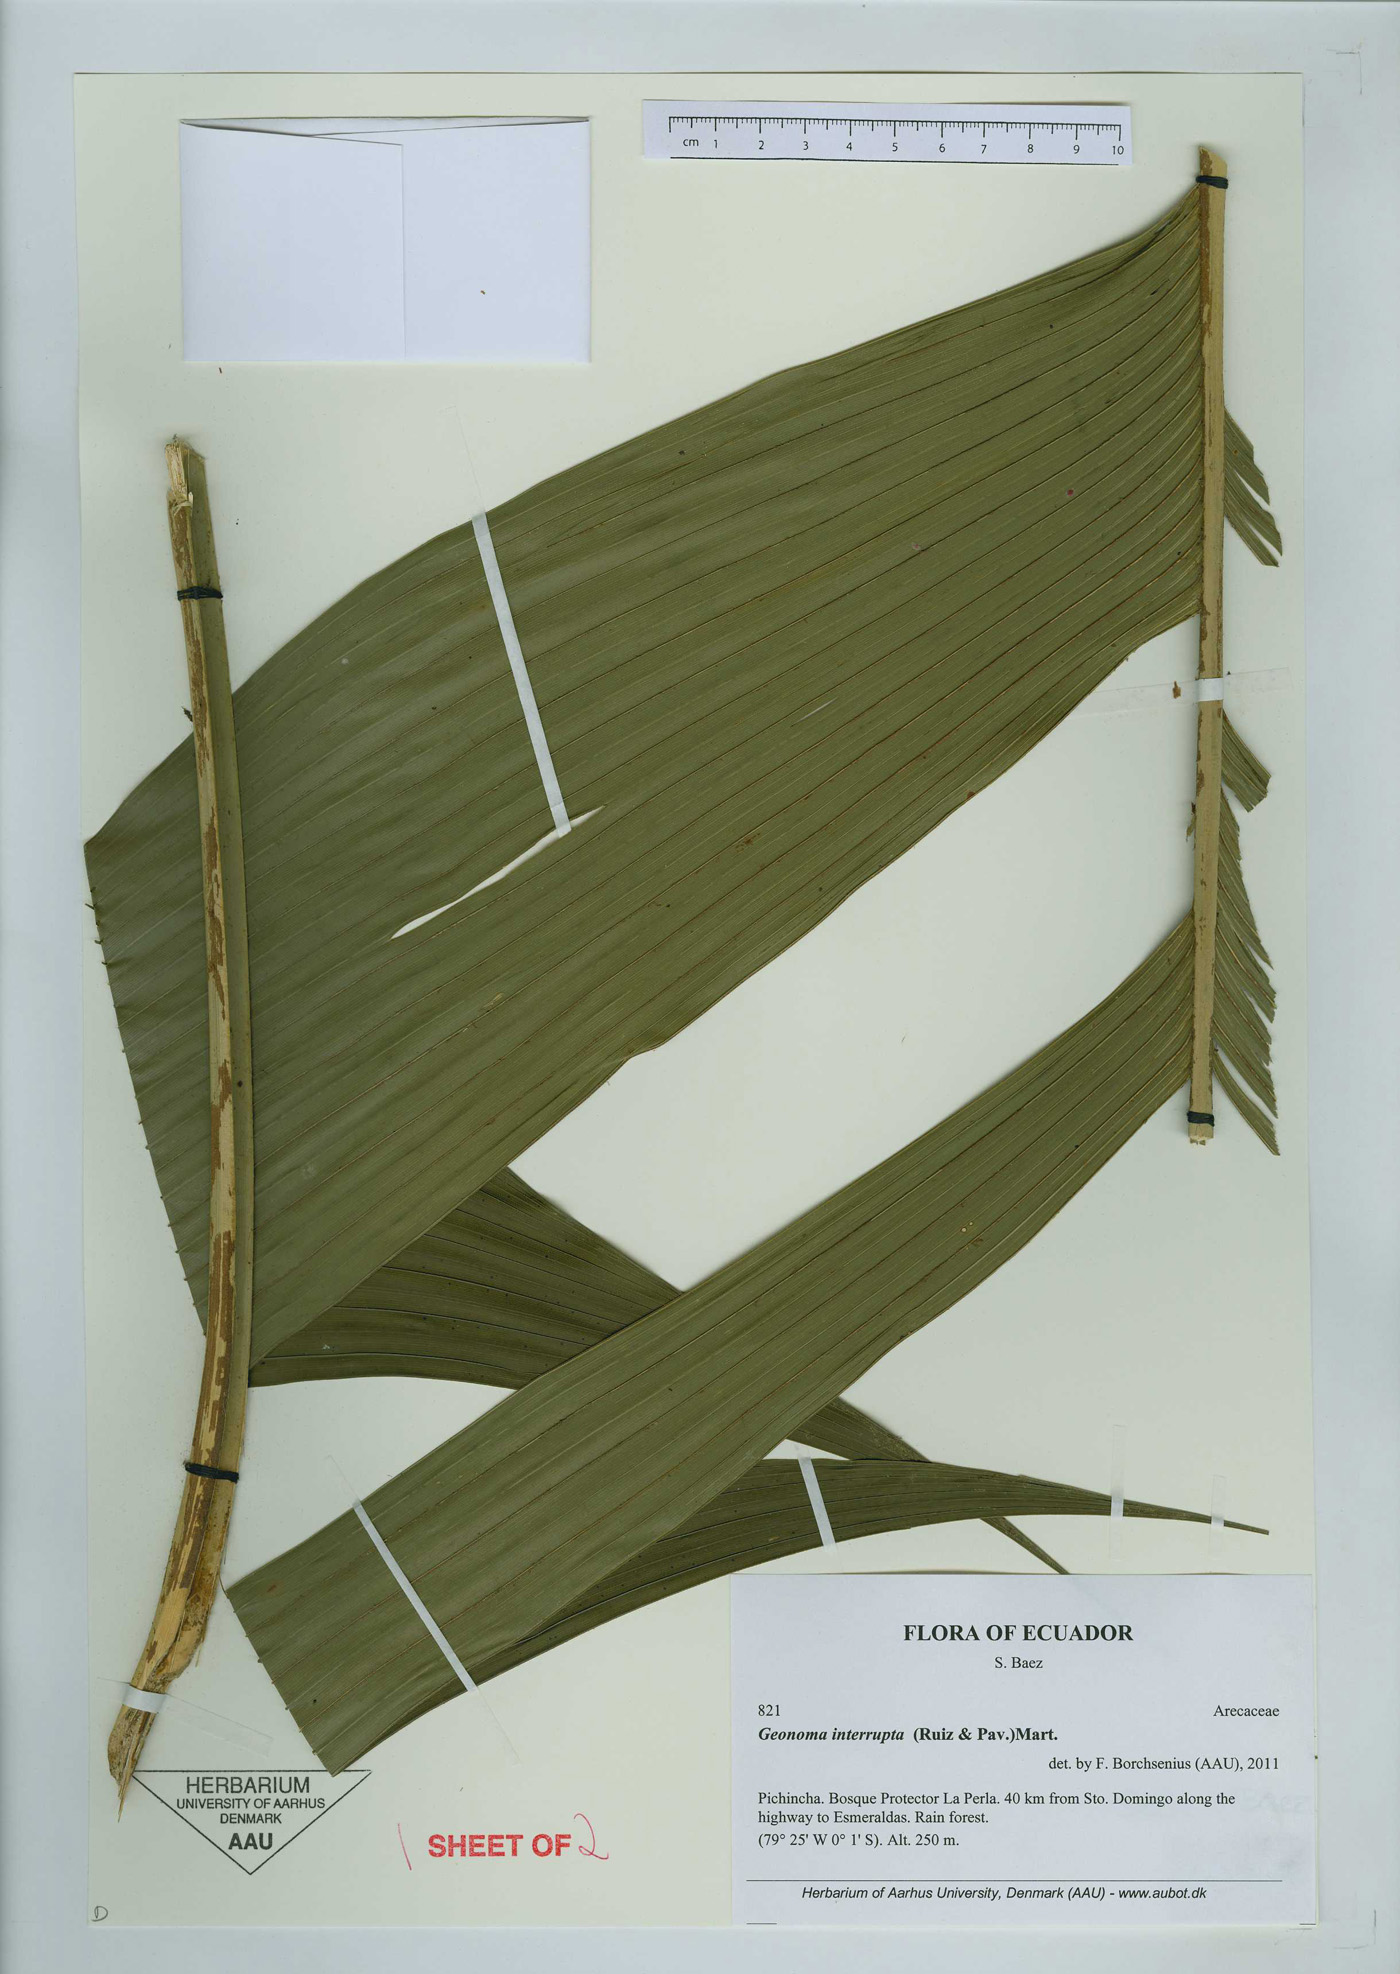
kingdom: Plantae
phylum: Tracheophyta
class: Liliopsida
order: Arecales
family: Arecaceae
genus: Geonoma
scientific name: Geonoma interrupta
